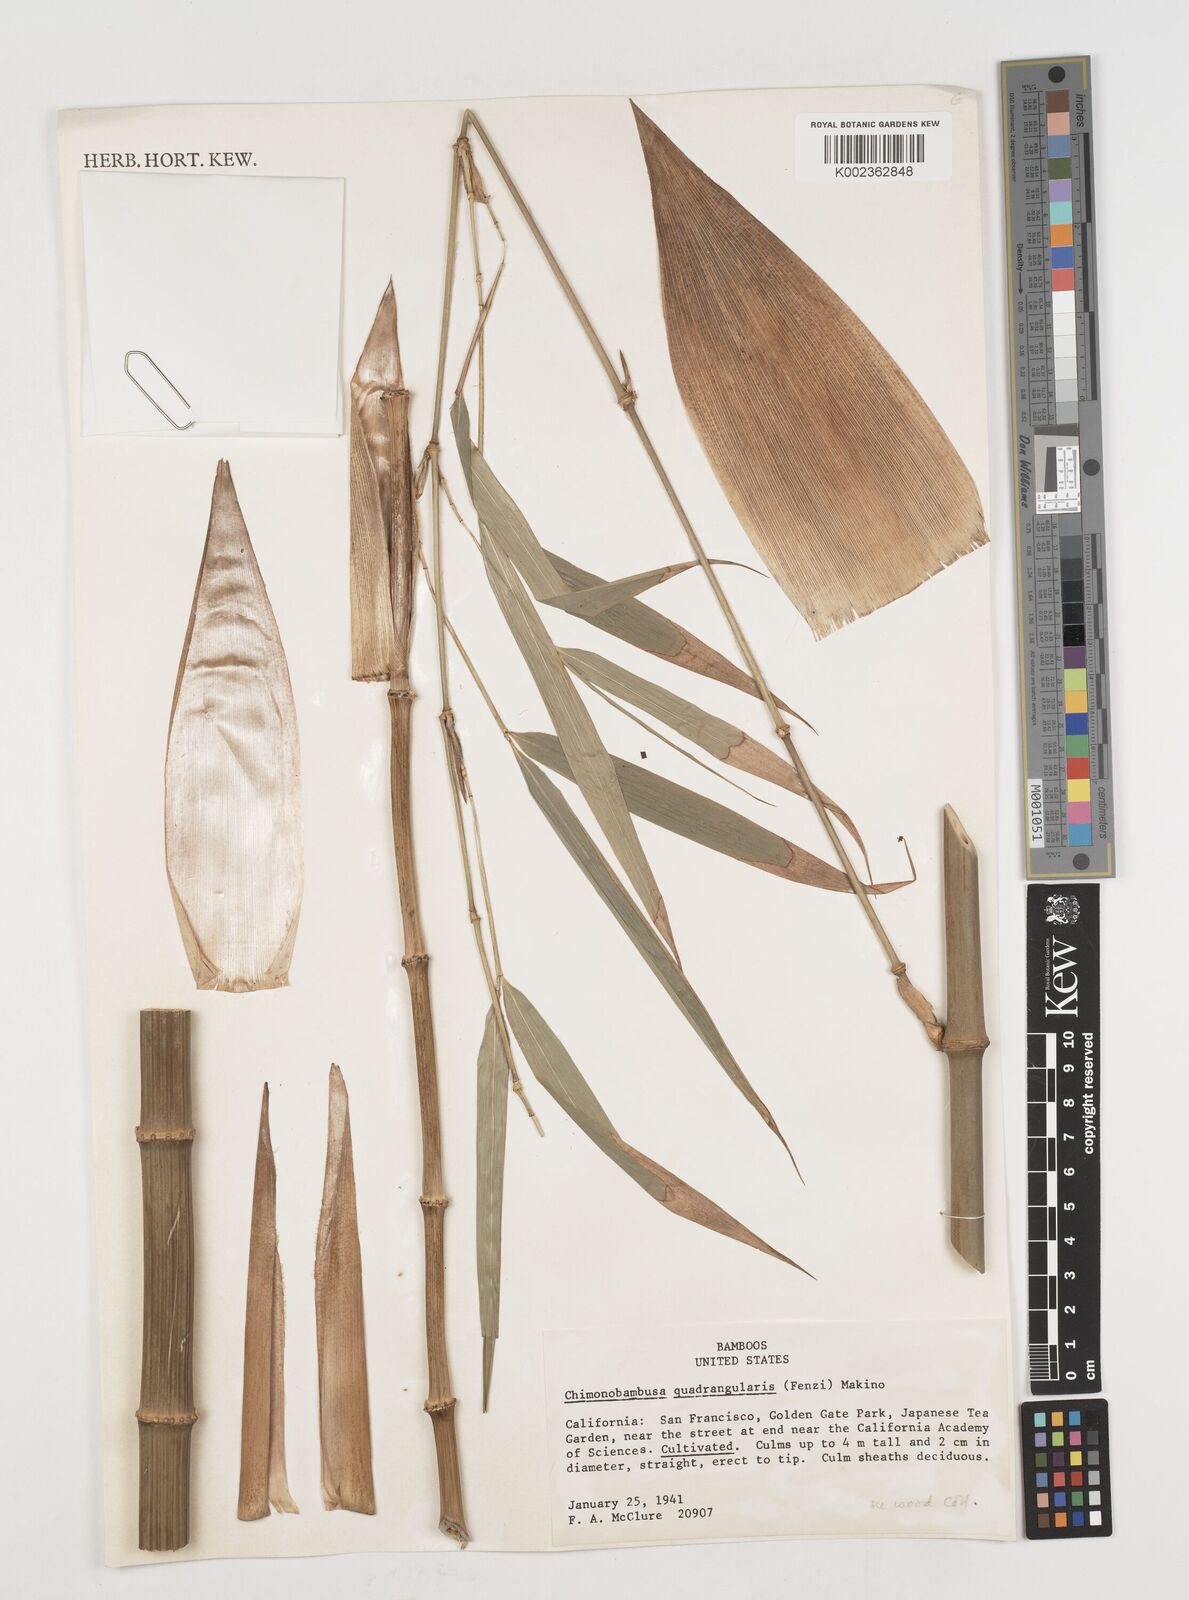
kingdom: Plantae
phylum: Tracheophyta
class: Liliopsida
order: Poales
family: Poaceae
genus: Chimonobambusa
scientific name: Chimonobambusa quadrangularis
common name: Square-stemmed bamboo
